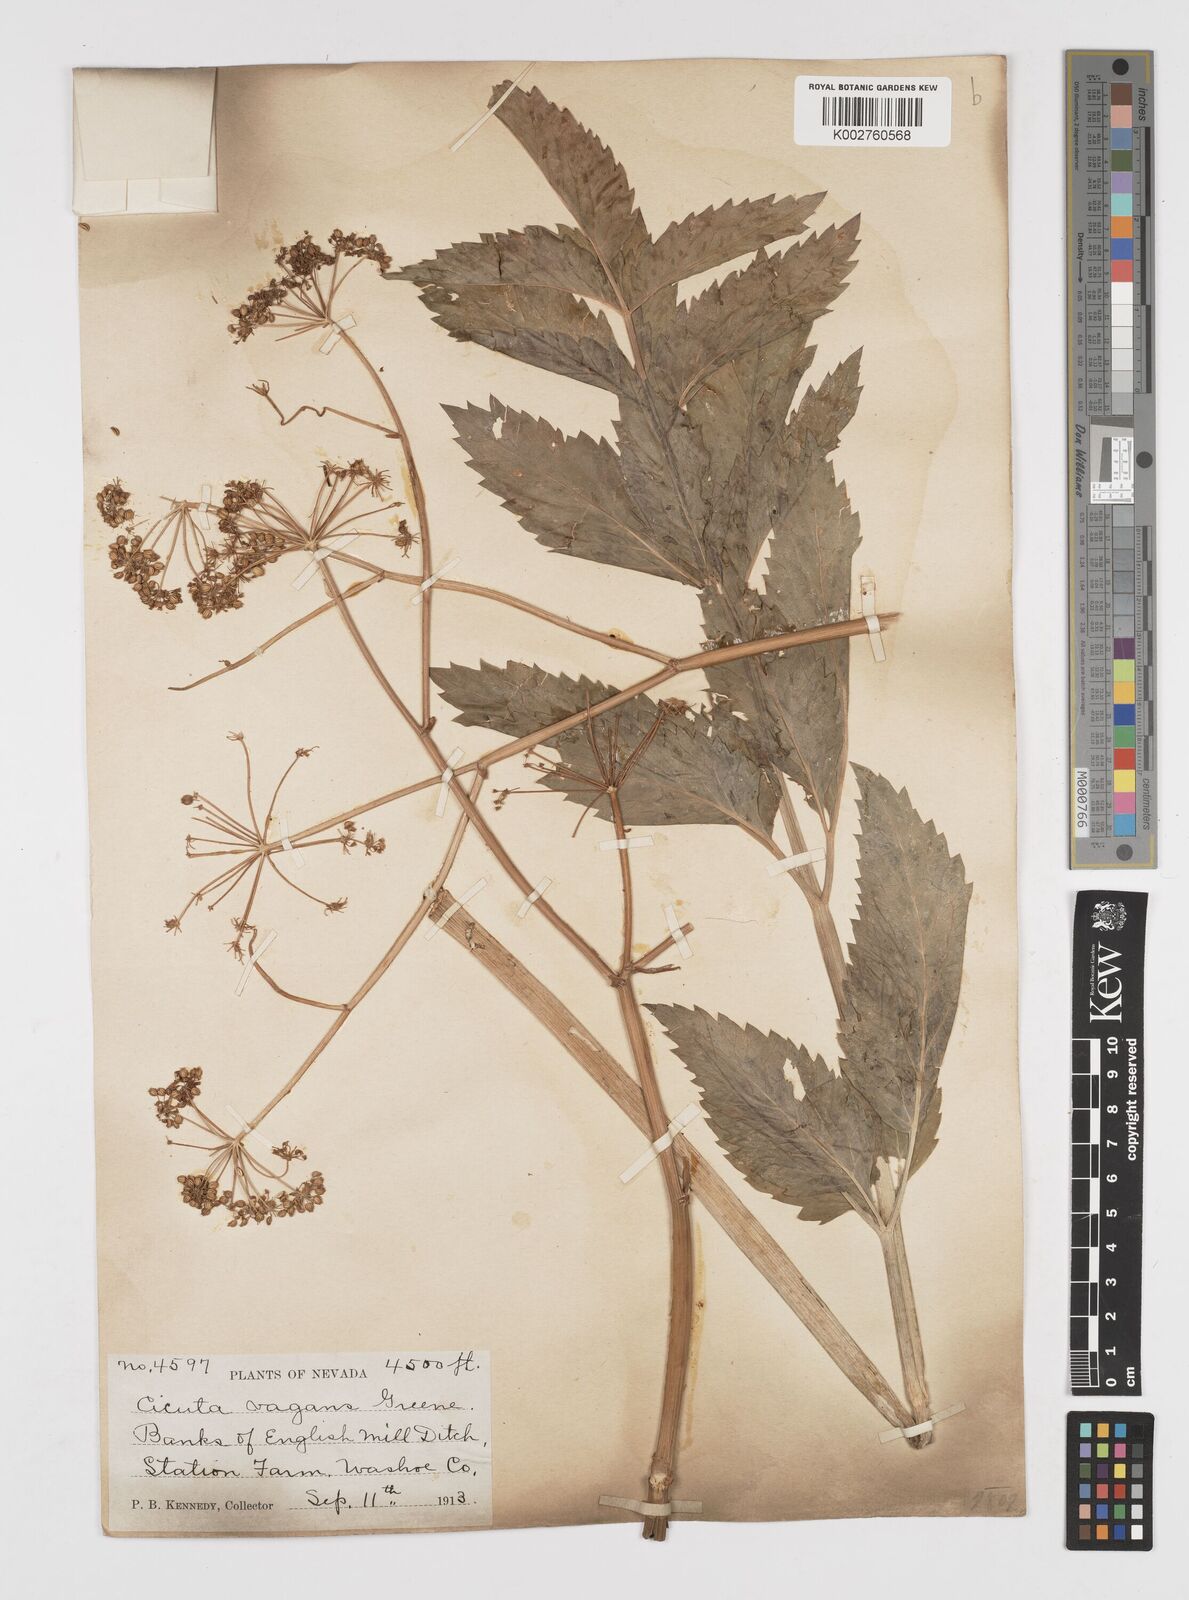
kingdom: Plantae
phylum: Tracheophyta
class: Magnoliopsida
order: Apiales
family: Apiaceae
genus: Cicuta
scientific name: Cicuta douglasii
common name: Western water-hemlock
